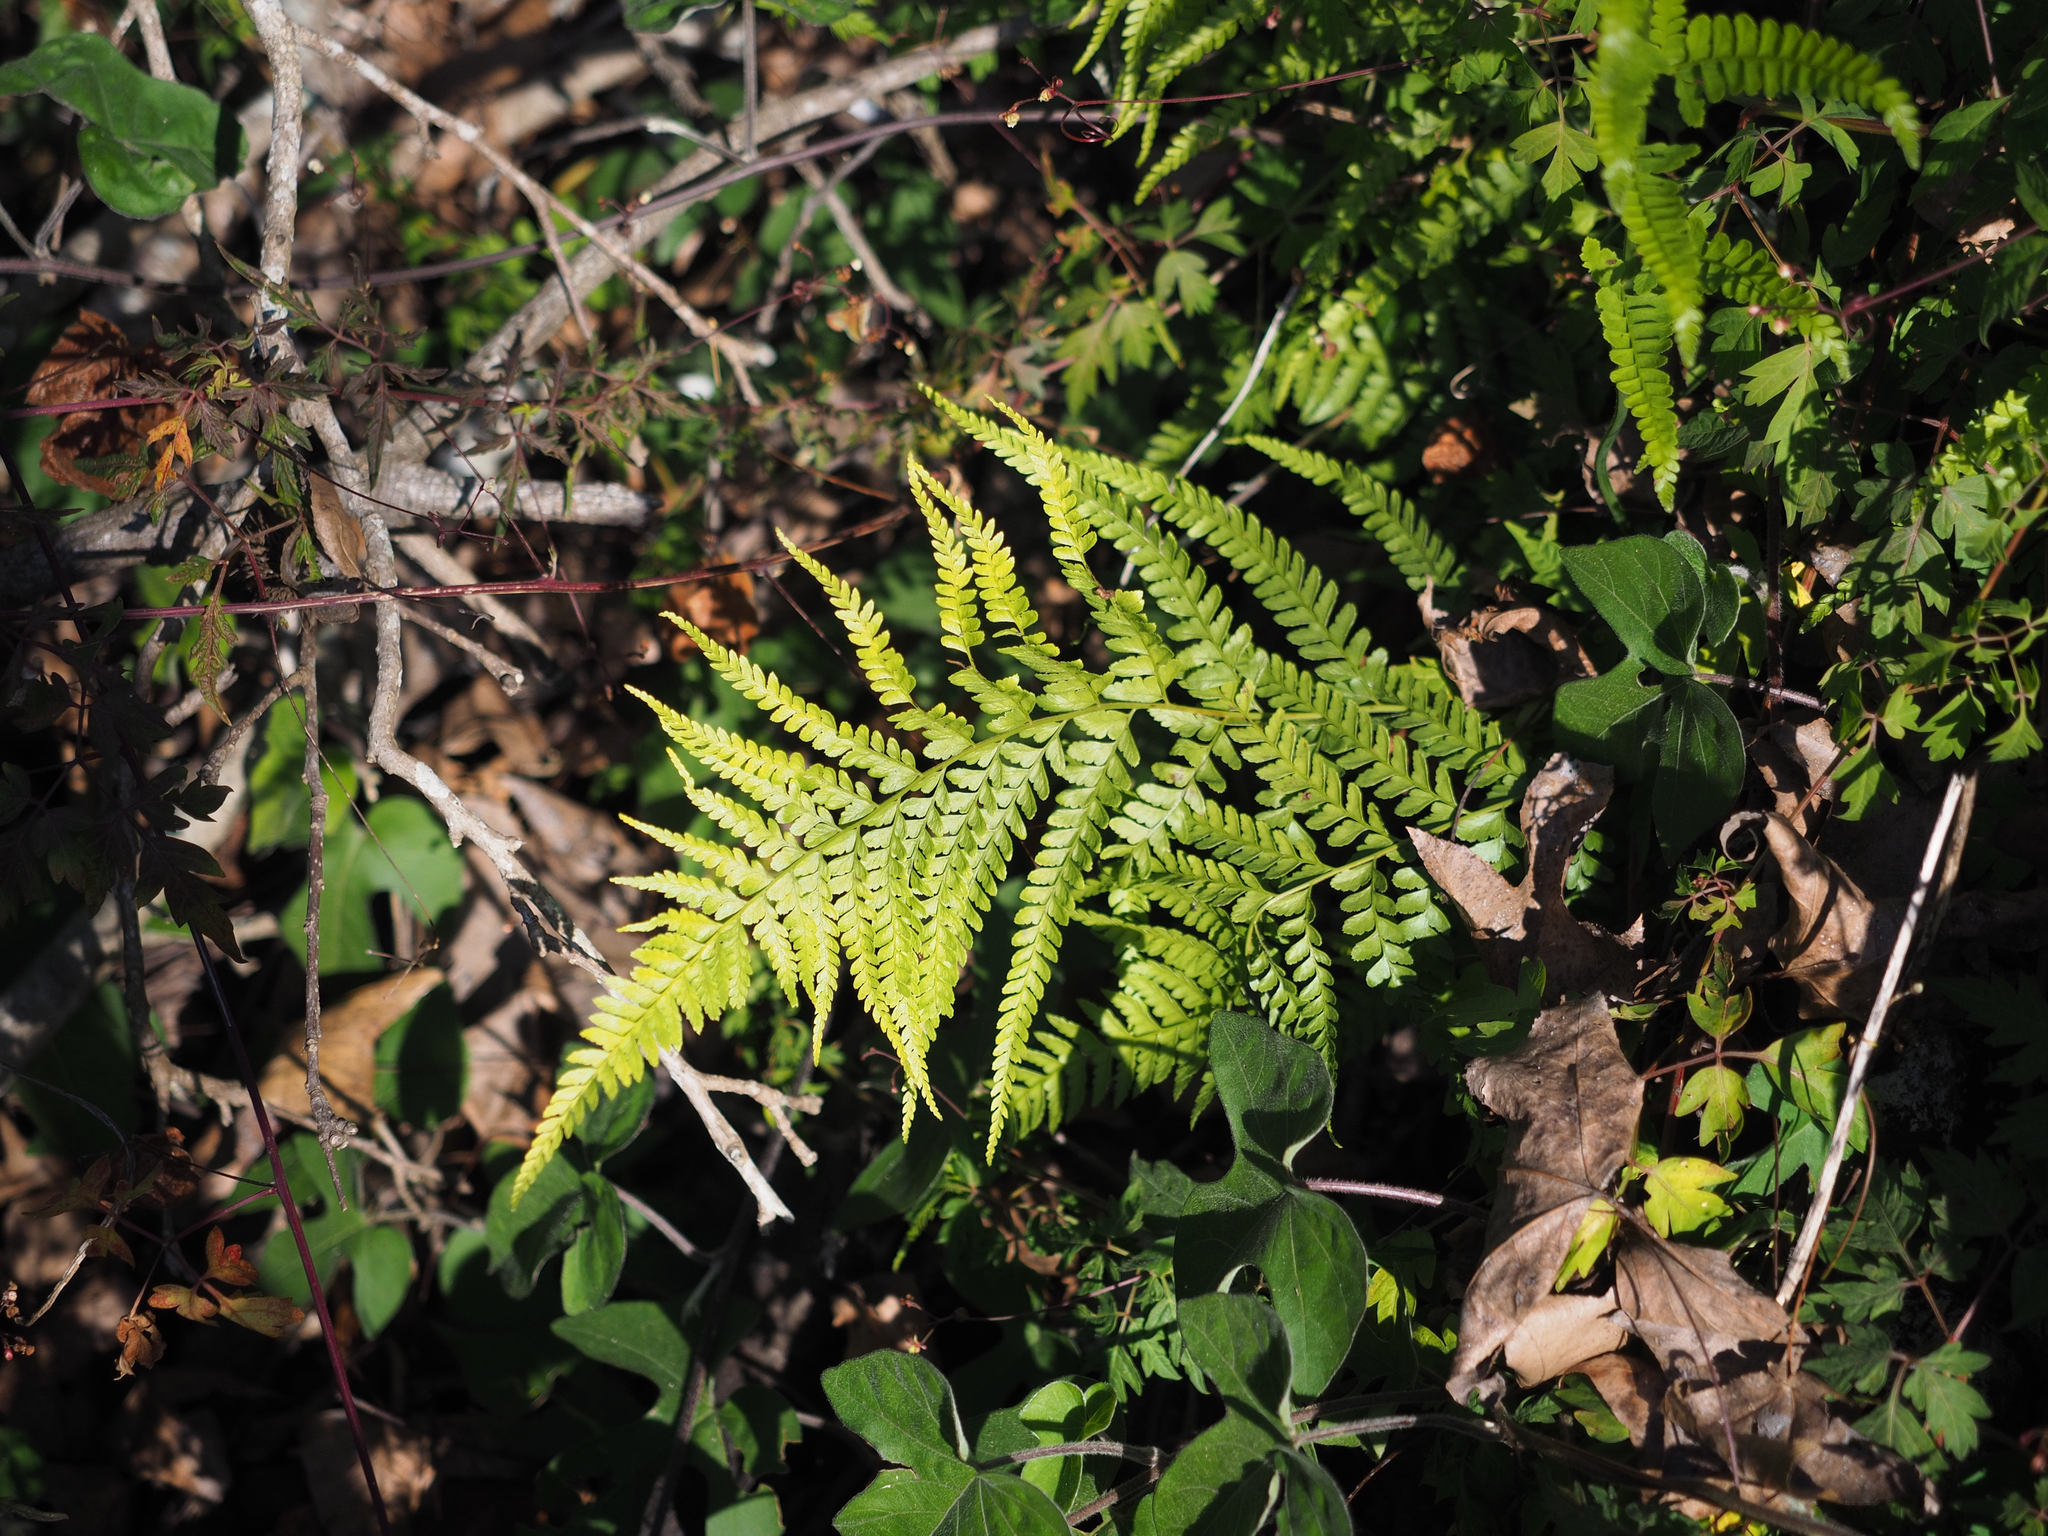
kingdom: Plantae
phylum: Tracheophyta
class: Polypodiopsida
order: Polypodiales
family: Dennstaedtiaceae
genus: Microlepia
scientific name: Microlepia strigosa
